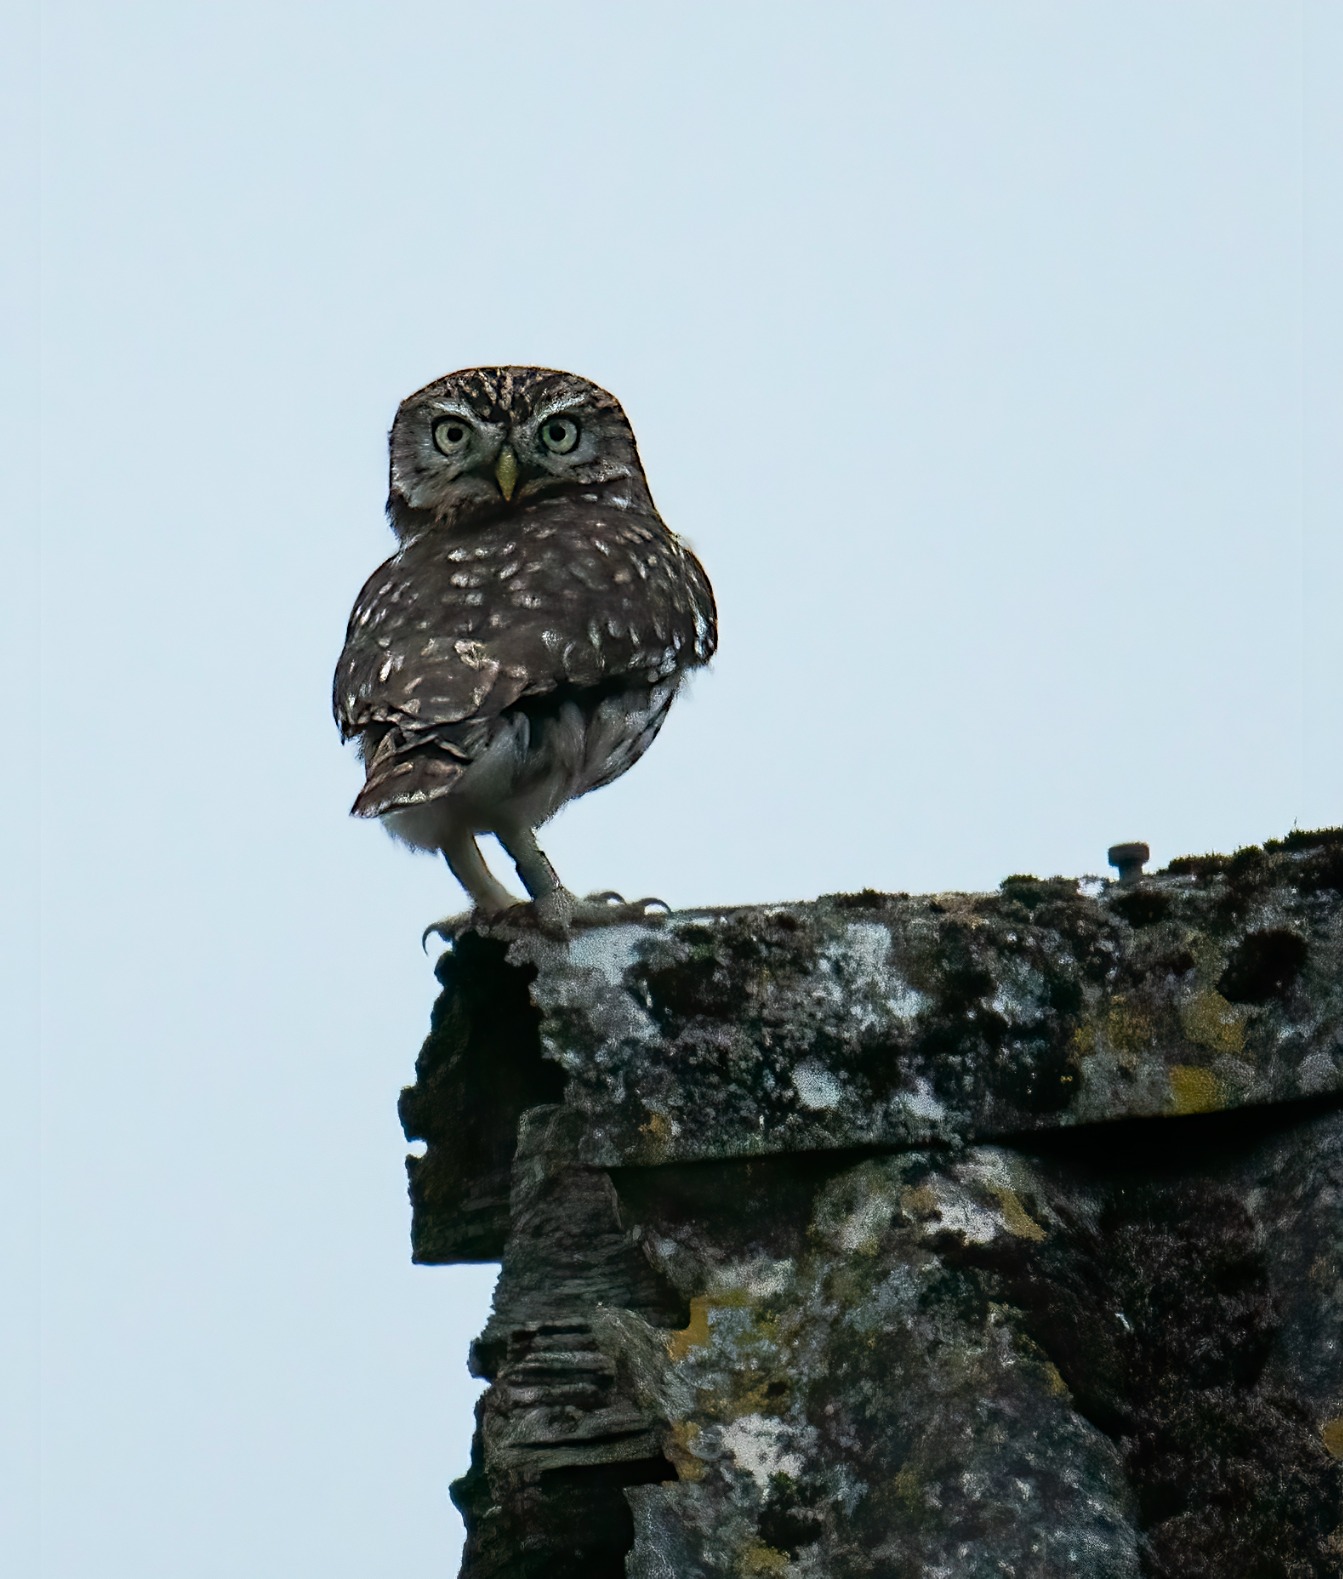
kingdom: Animalia
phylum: Chordata
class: Aves
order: Strigiformes
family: Strigidae
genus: Athene
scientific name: Athene noctua
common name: Kirkeugle
